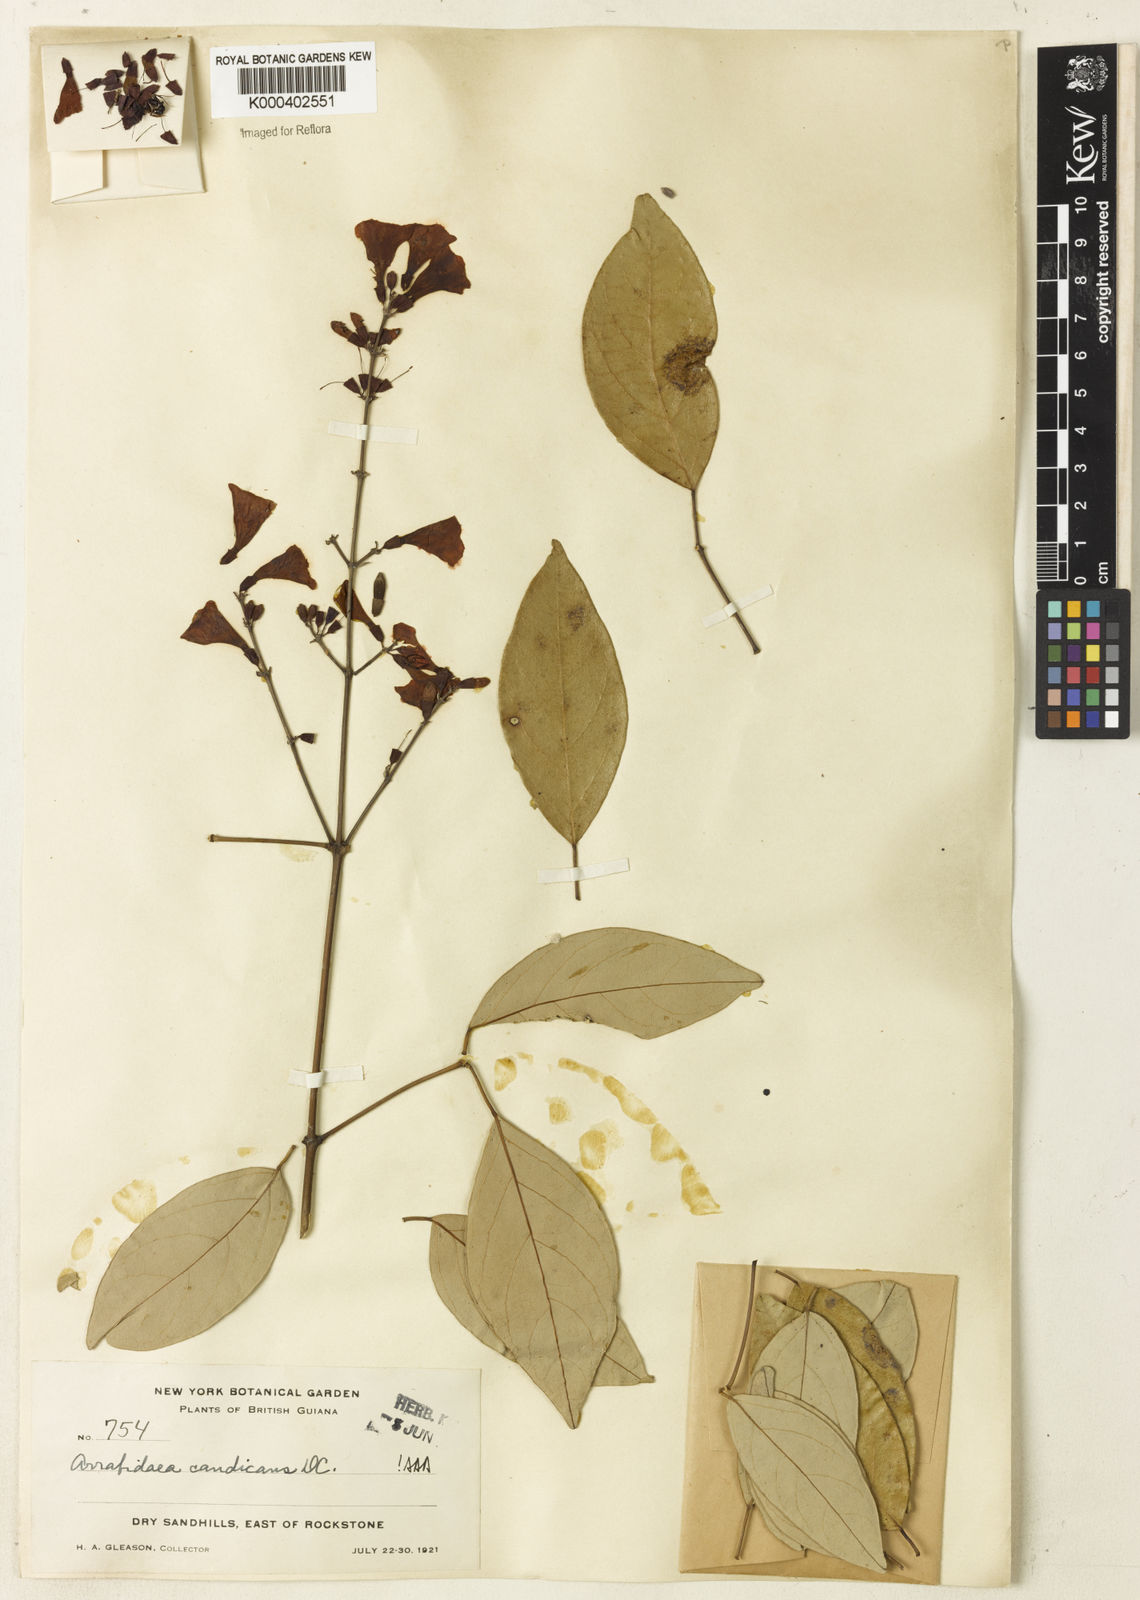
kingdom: Plantae
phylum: Tracheophyta
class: Magnoliopsida
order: Lamiales
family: Bignoniaceae
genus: Fridericia
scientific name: Fridericia candicans
